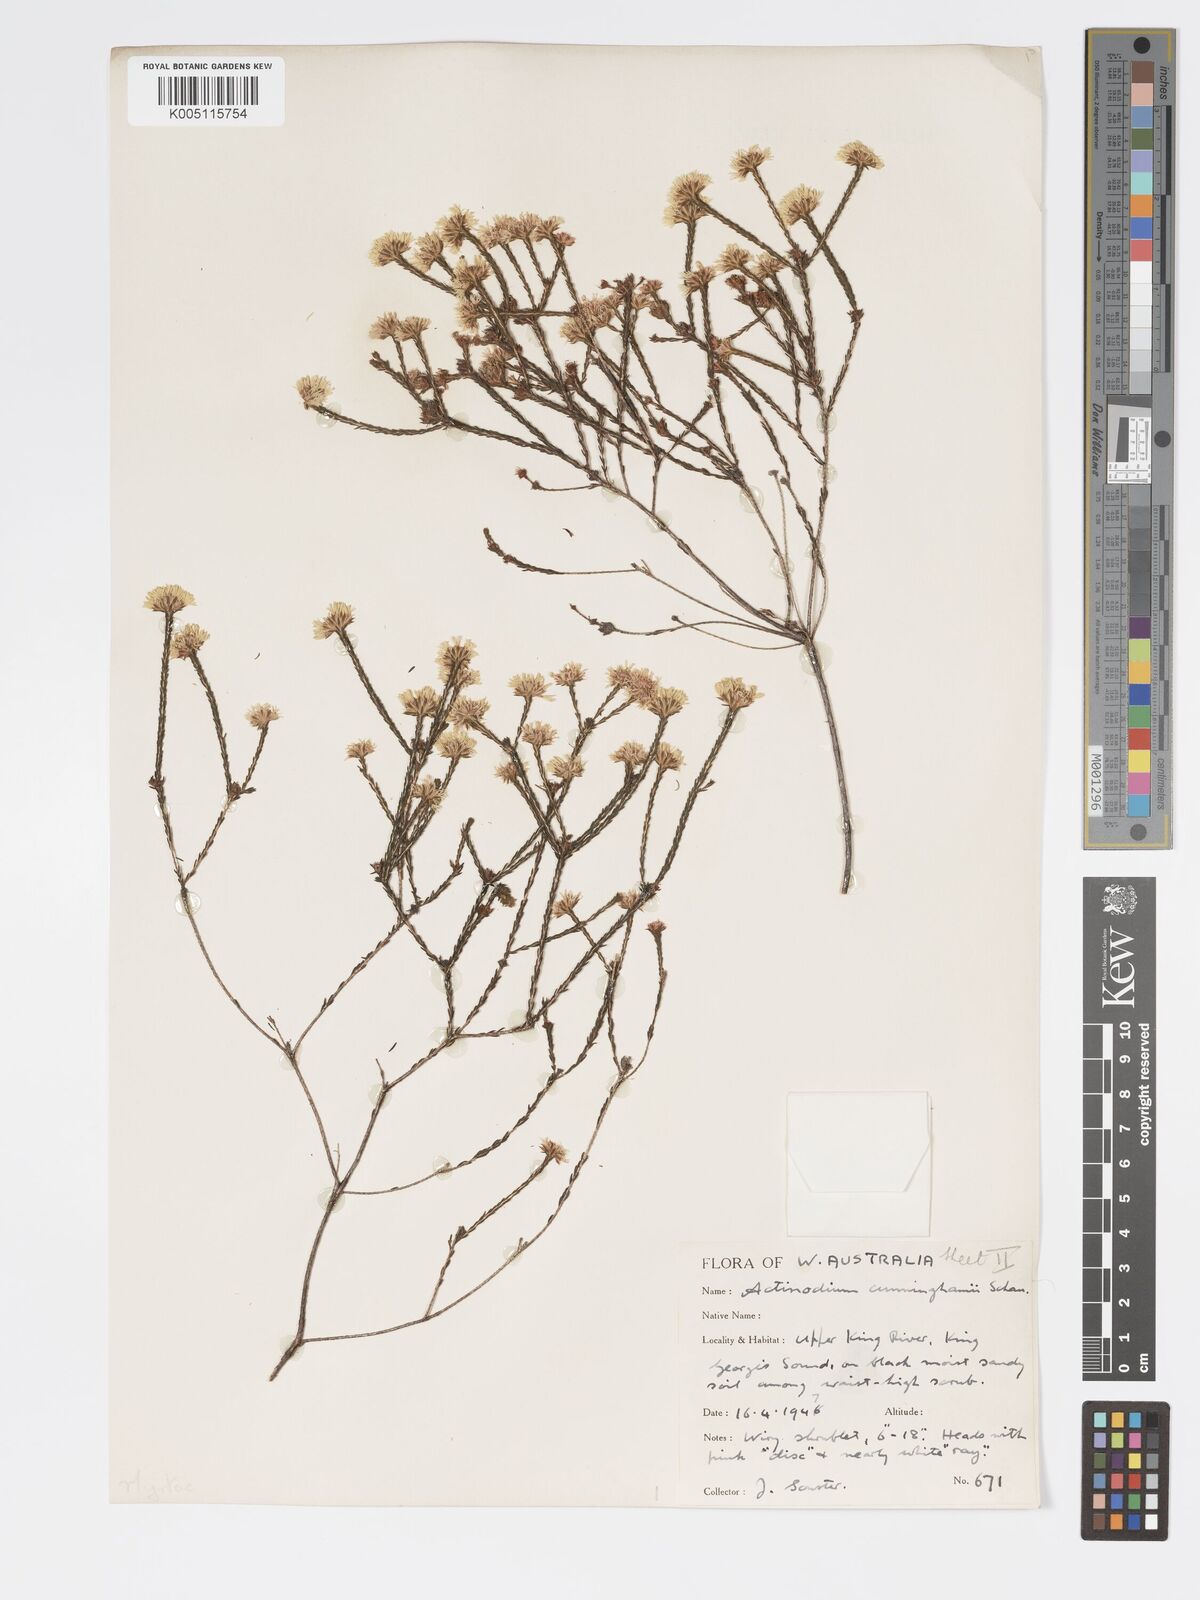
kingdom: Plantae
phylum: Tracheophyta
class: Magnoliopsida
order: Myrtales
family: Myrtaceae
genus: Actinodium
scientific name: Actinodium cunninghamii
